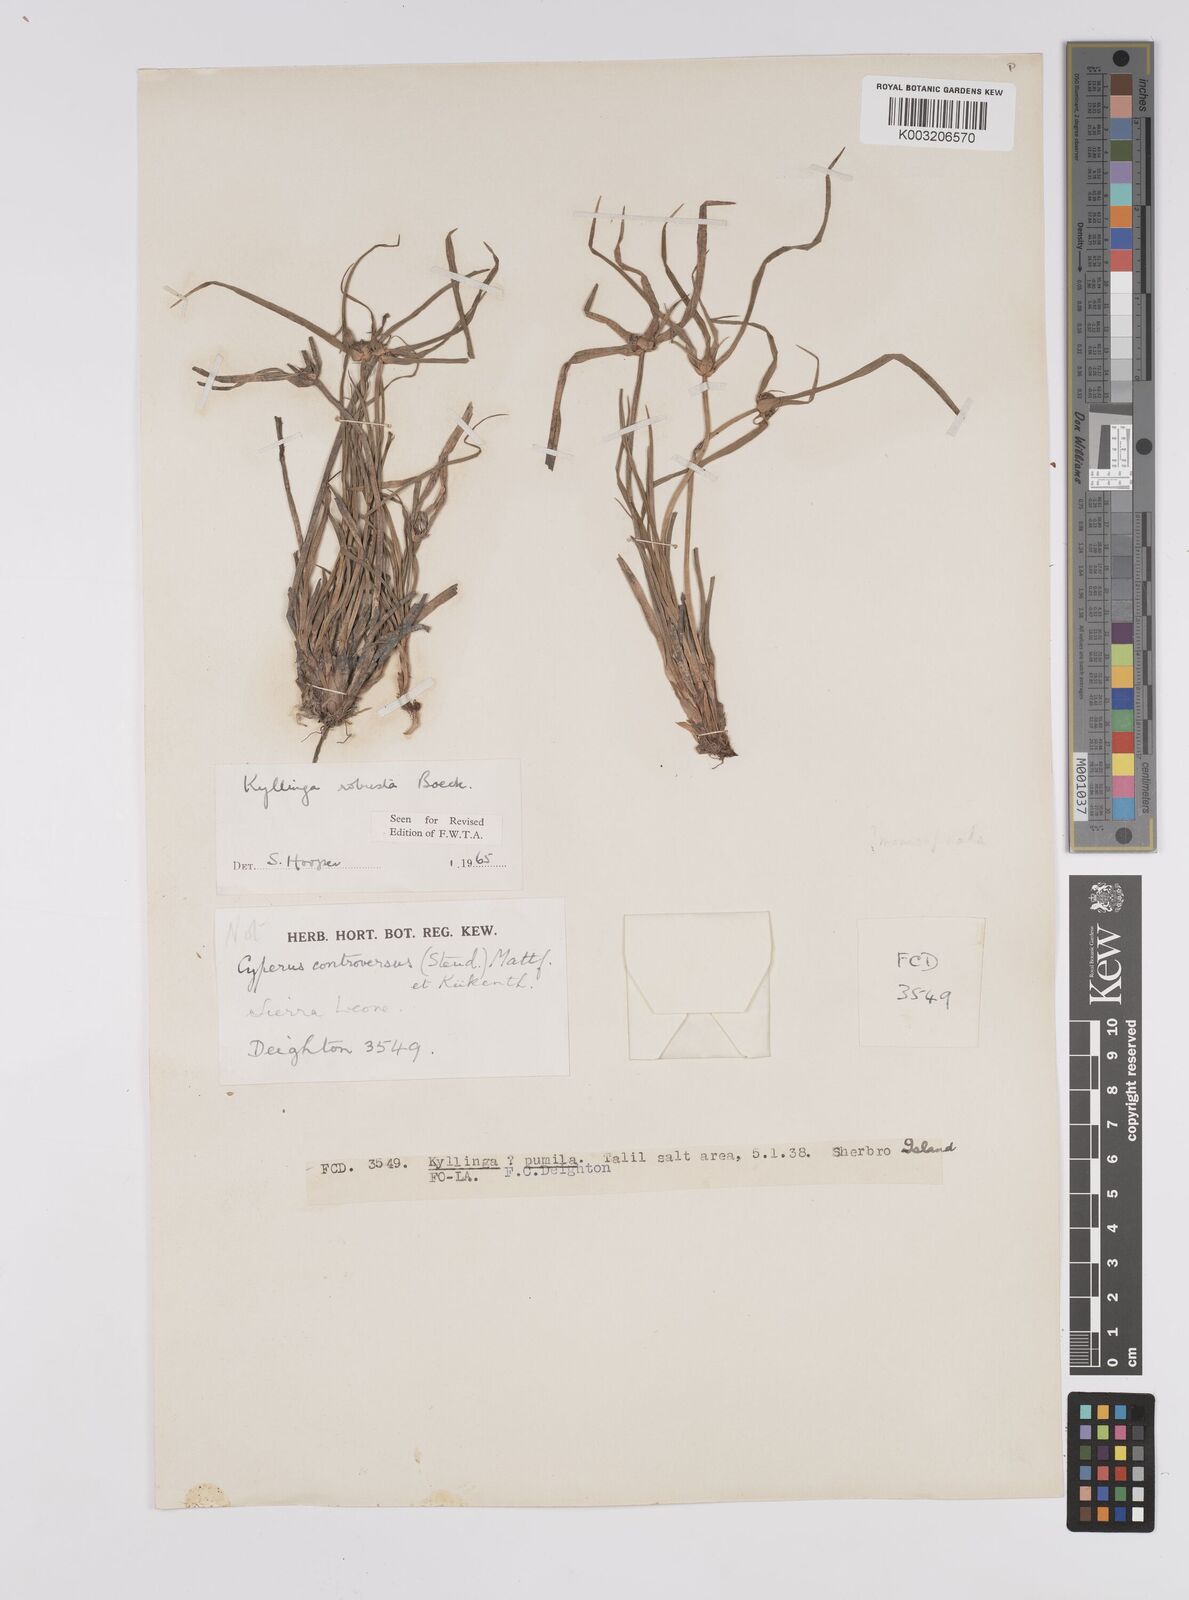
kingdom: Plantae
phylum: Tracheophyta
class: Liliopsida
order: Poales
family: Cyperaceae
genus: Cyperus
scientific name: Cyperus
